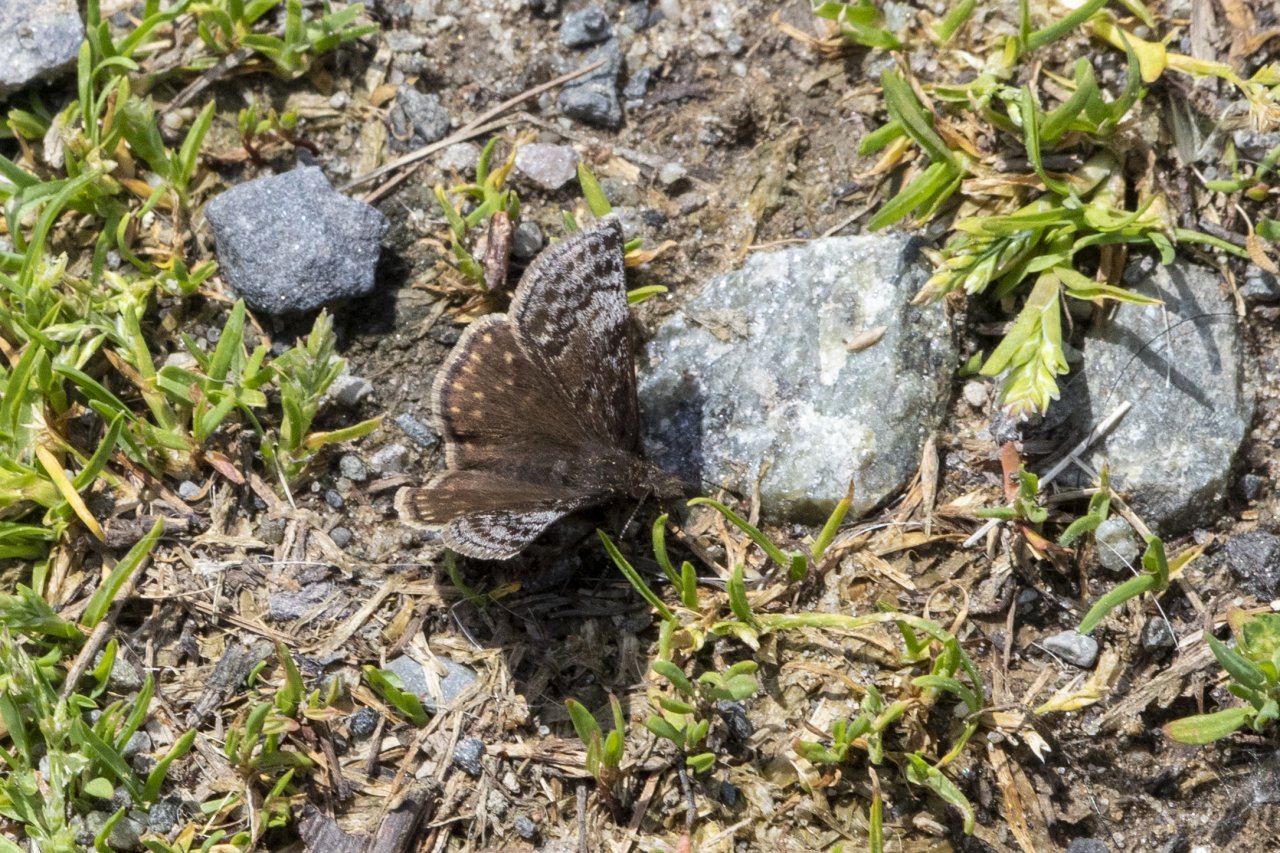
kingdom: Animalia
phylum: Arthropoda
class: Insecta
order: Lepidoptera
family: Hesperiidae
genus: Erynnis
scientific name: Erynnis icelus
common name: Dreamy Duskywing
